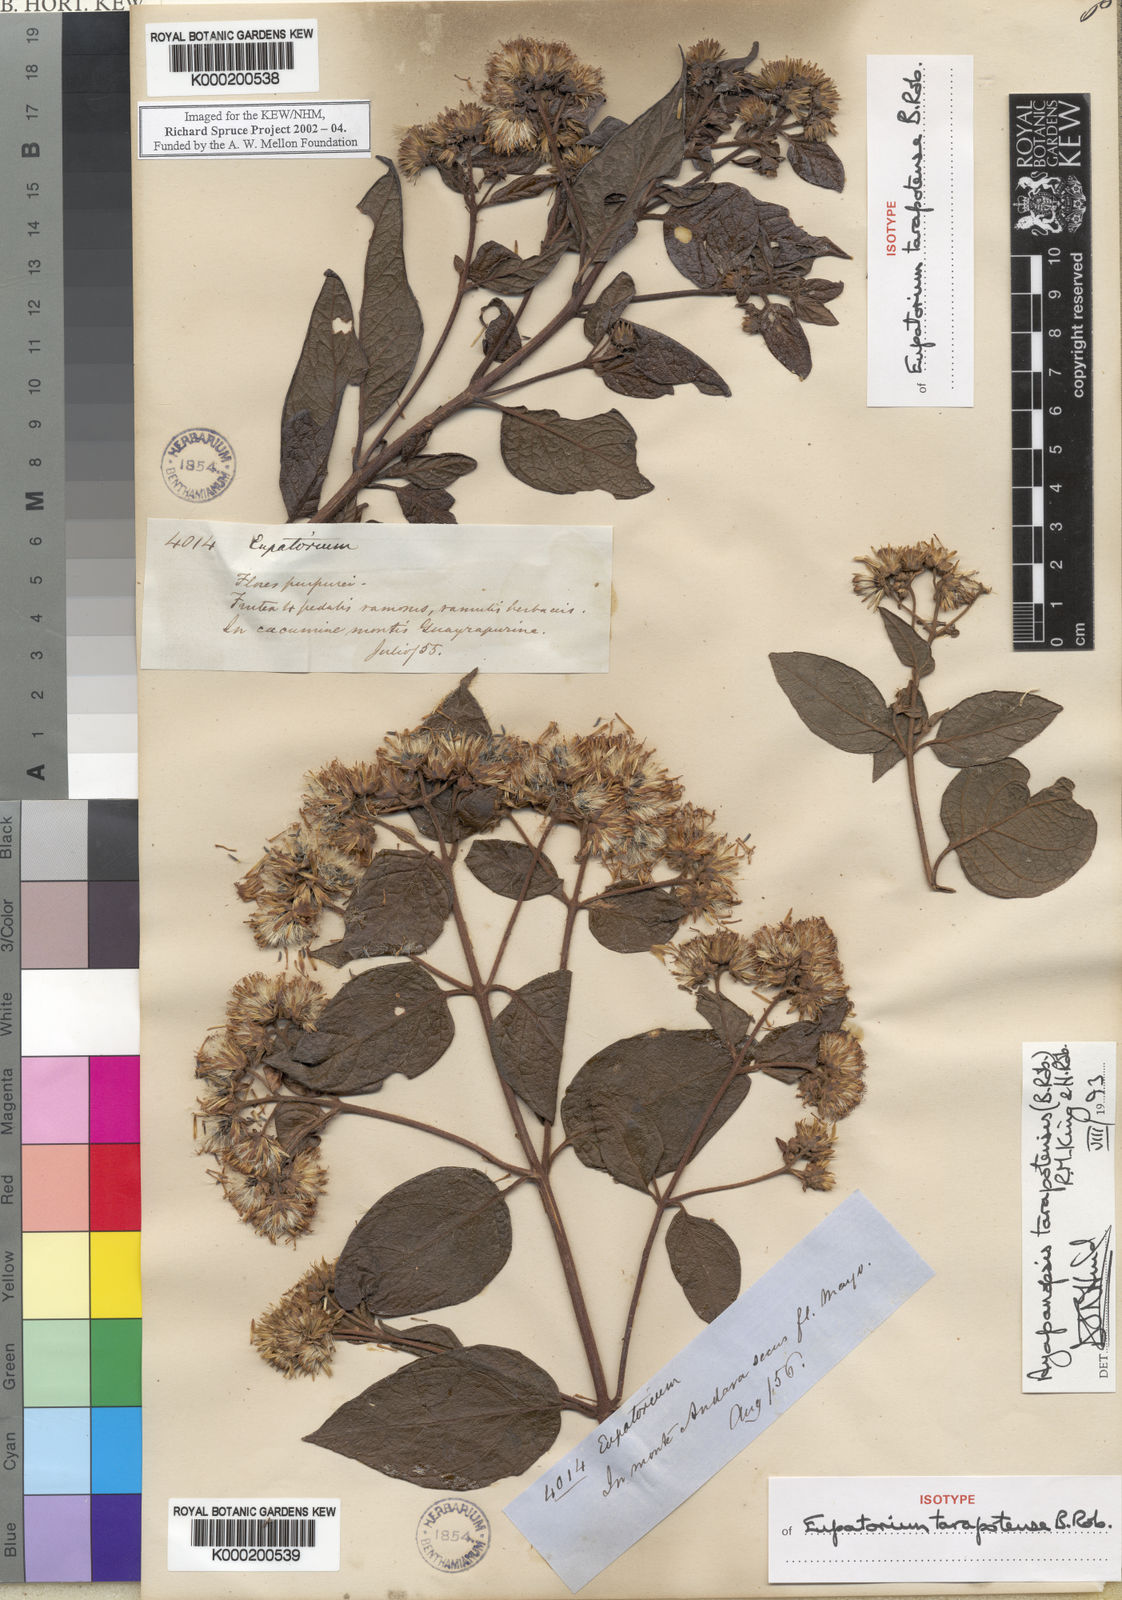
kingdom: Plantae
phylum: Tracheophyta
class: Magnoliopsida
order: Asterales
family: Asteraceae
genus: Ayapanopsis
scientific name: Ayapanopsis tarapotensis
